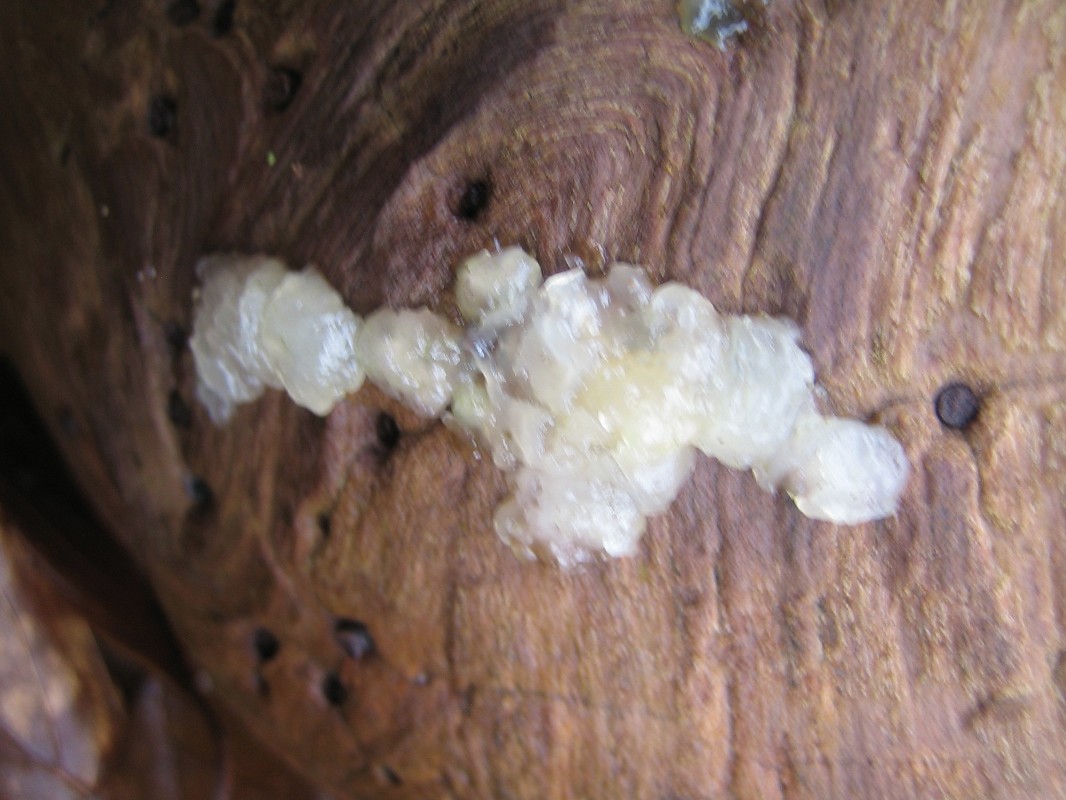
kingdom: Fungi
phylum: Basidiomycota
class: Agaricomycetes
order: Auriculariales
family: Hyaloriaceae
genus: Myxarium
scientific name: Myxarium nucleatum
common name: klar bævretop
